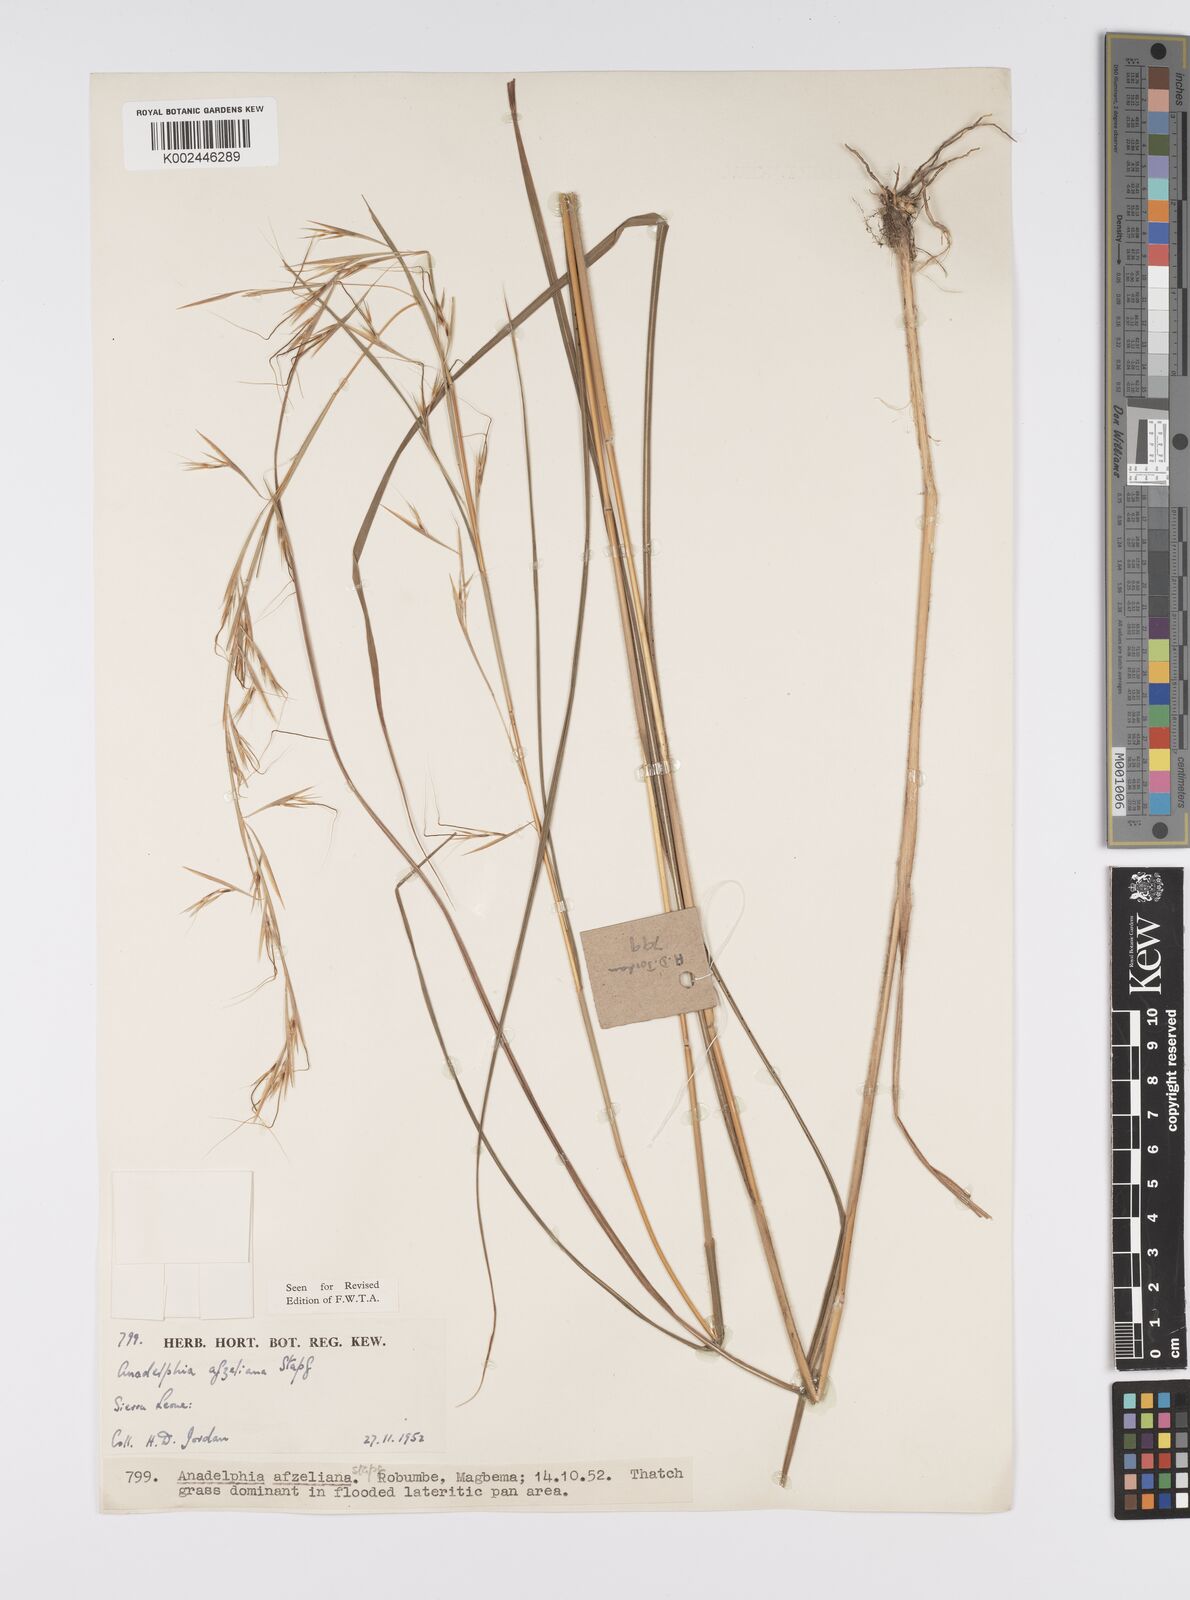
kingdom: Plantae
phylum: Tracheophyta
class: Liliopsida
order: Poales
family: Poaceae
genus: Anadelphia
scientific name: Anadelphia afzeliana
